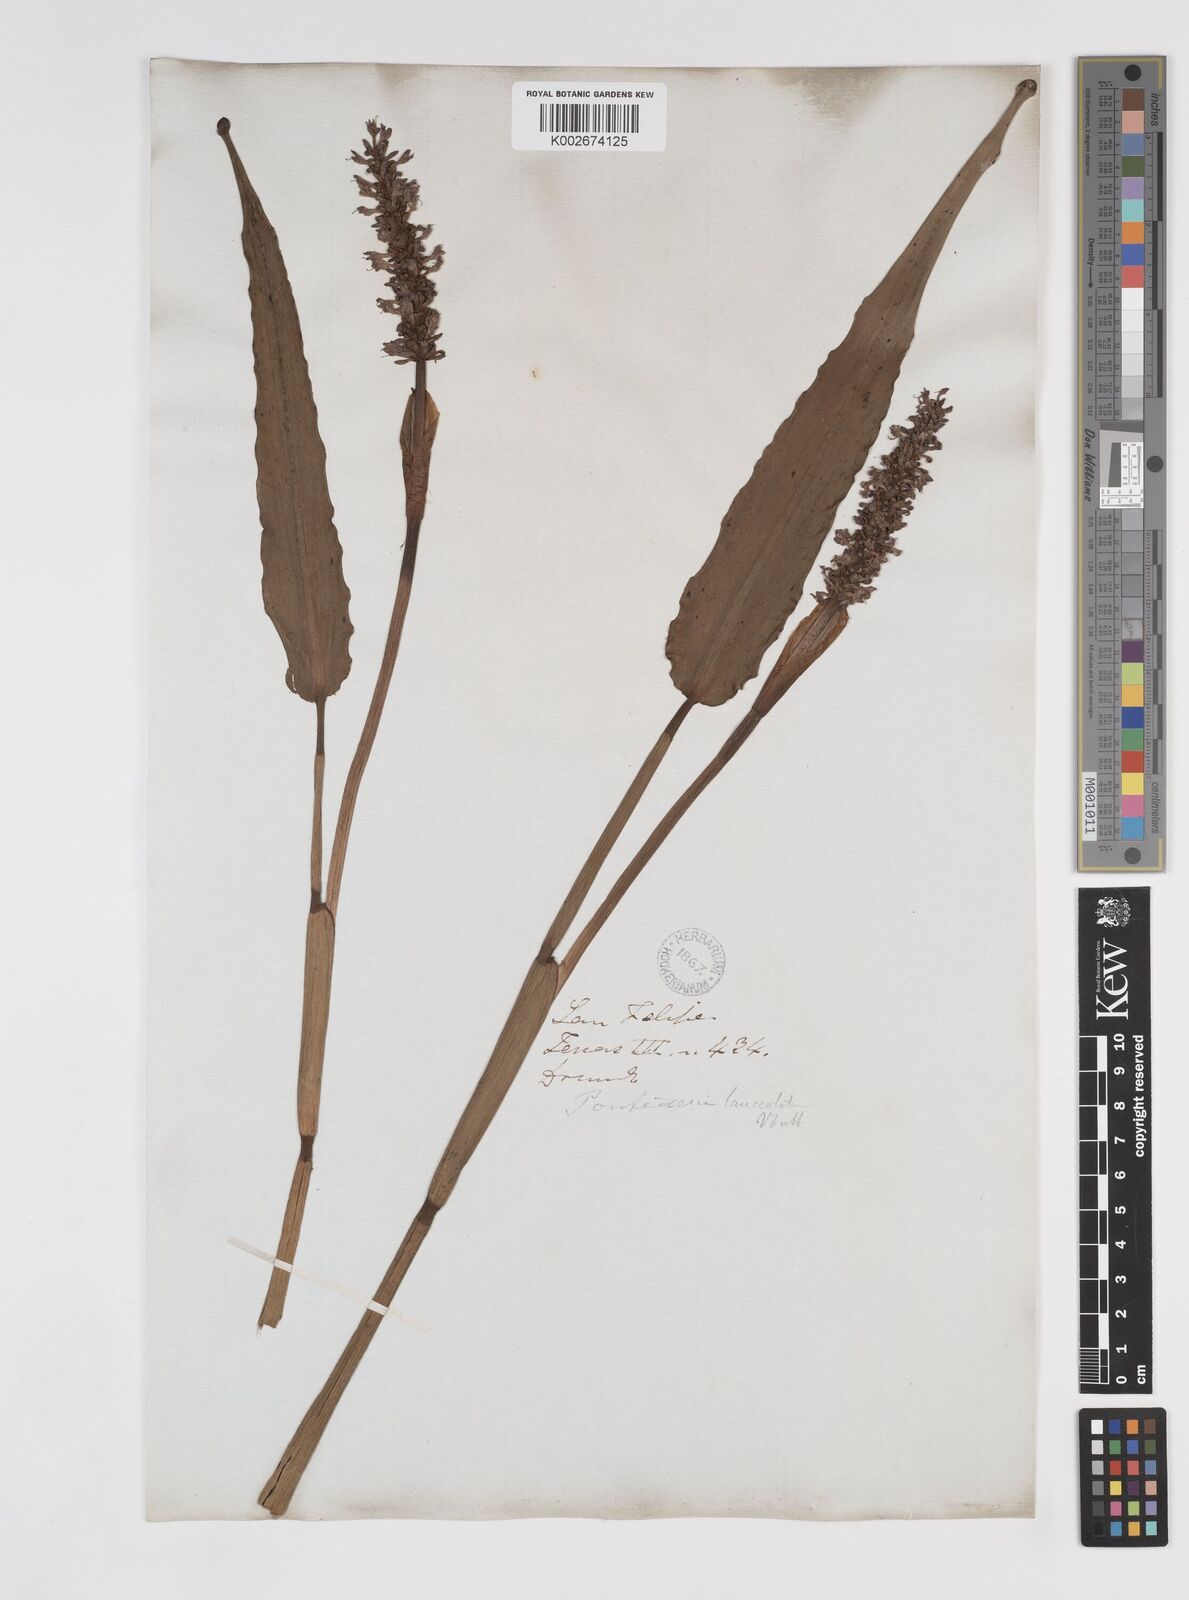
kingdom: Plantae
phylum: Tracheophyta
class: Liliopsida
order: Commelinales
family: Pontederiaceae
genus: Pontederia
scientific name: Pontederia cordata
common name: Pickerelweed
